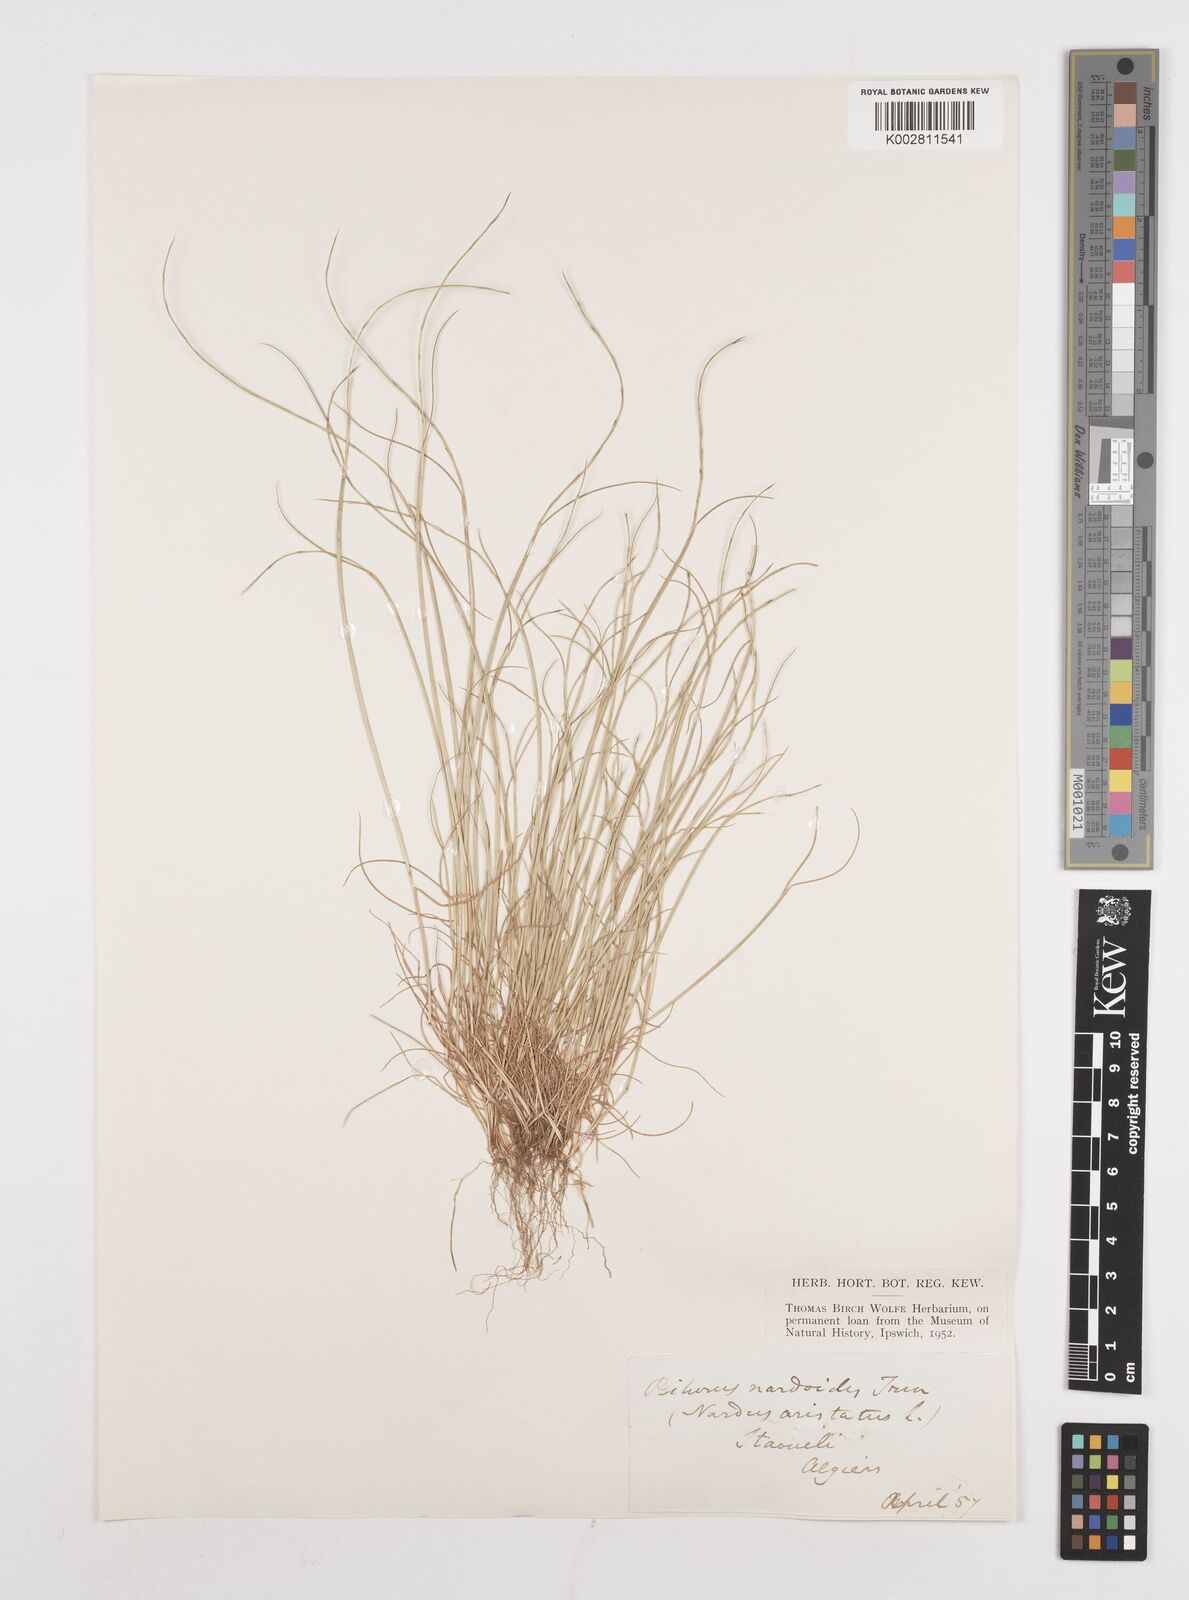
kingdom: Plantae
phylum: Tracheophyta
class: Liliopsida
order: Poales
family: Poaceae
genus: Festuca
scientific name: Festuca
